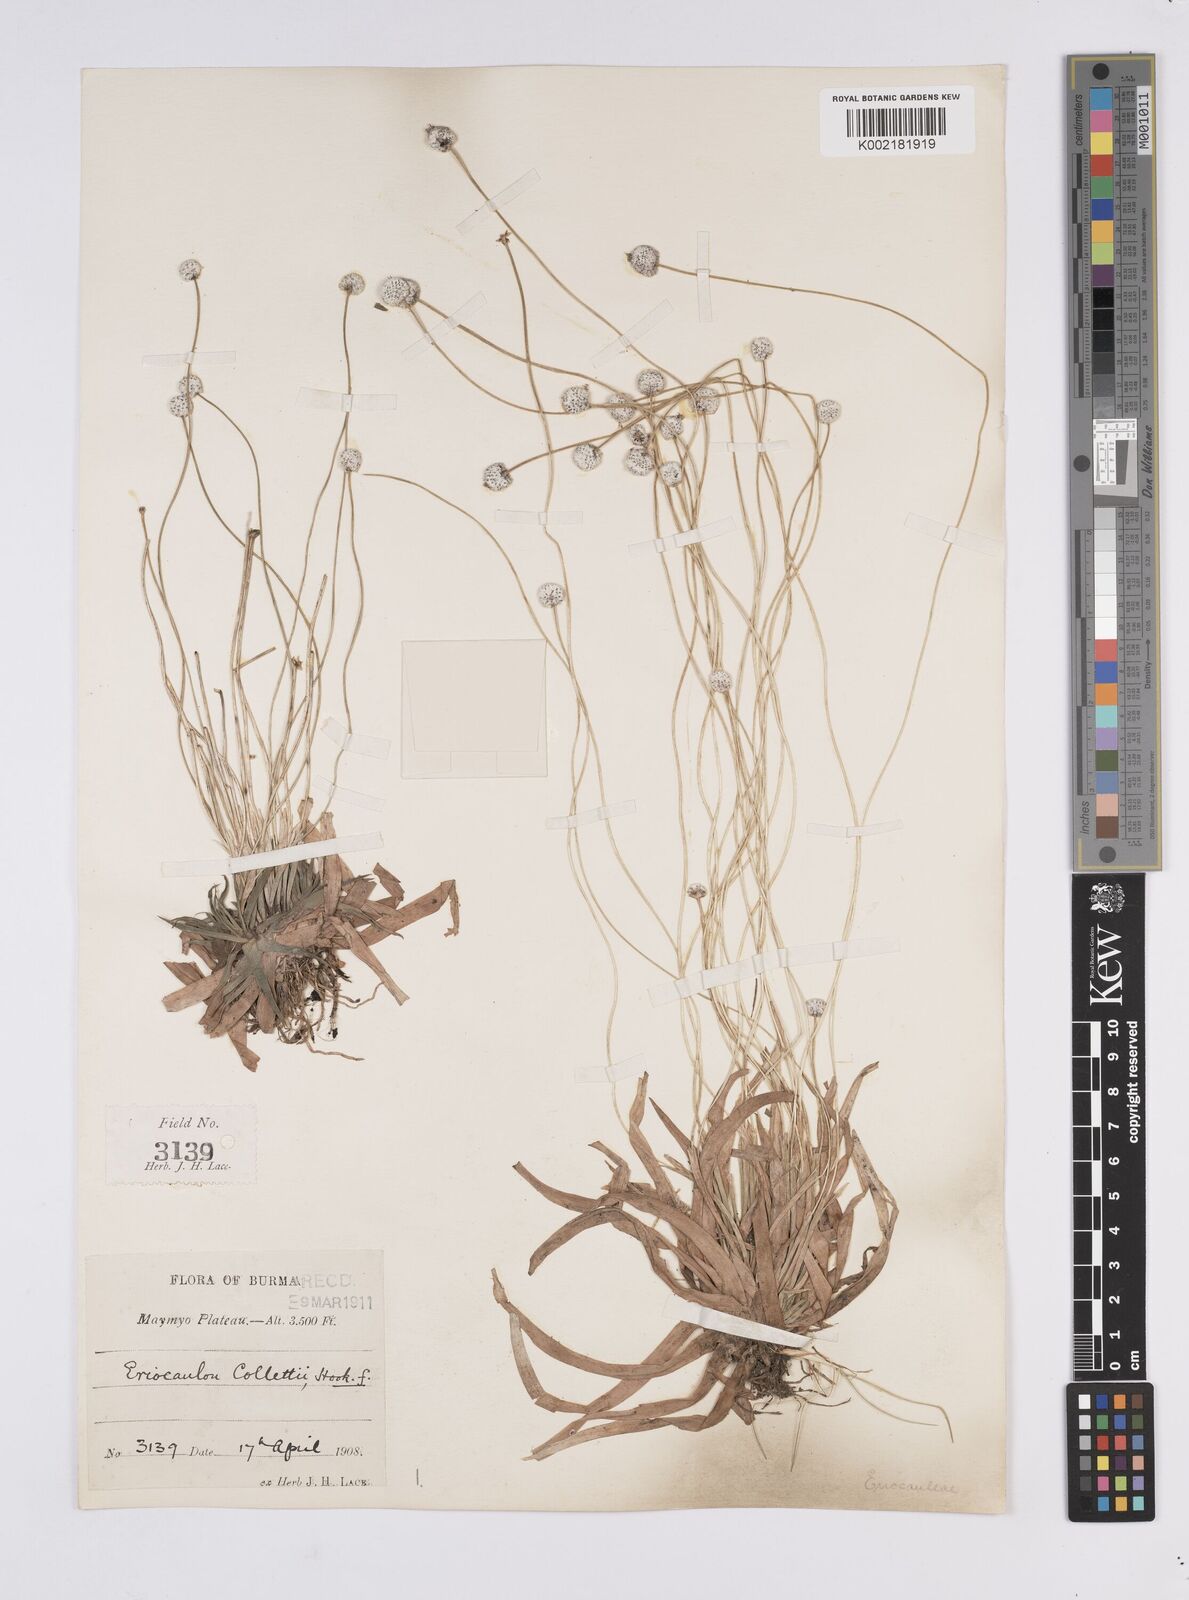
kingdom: Plantae
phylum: Tracheophyta
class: Liliopsida
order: Poales
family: Eriocaulaceae
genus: Eriocaulon
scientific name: Eriocaulon collettii
